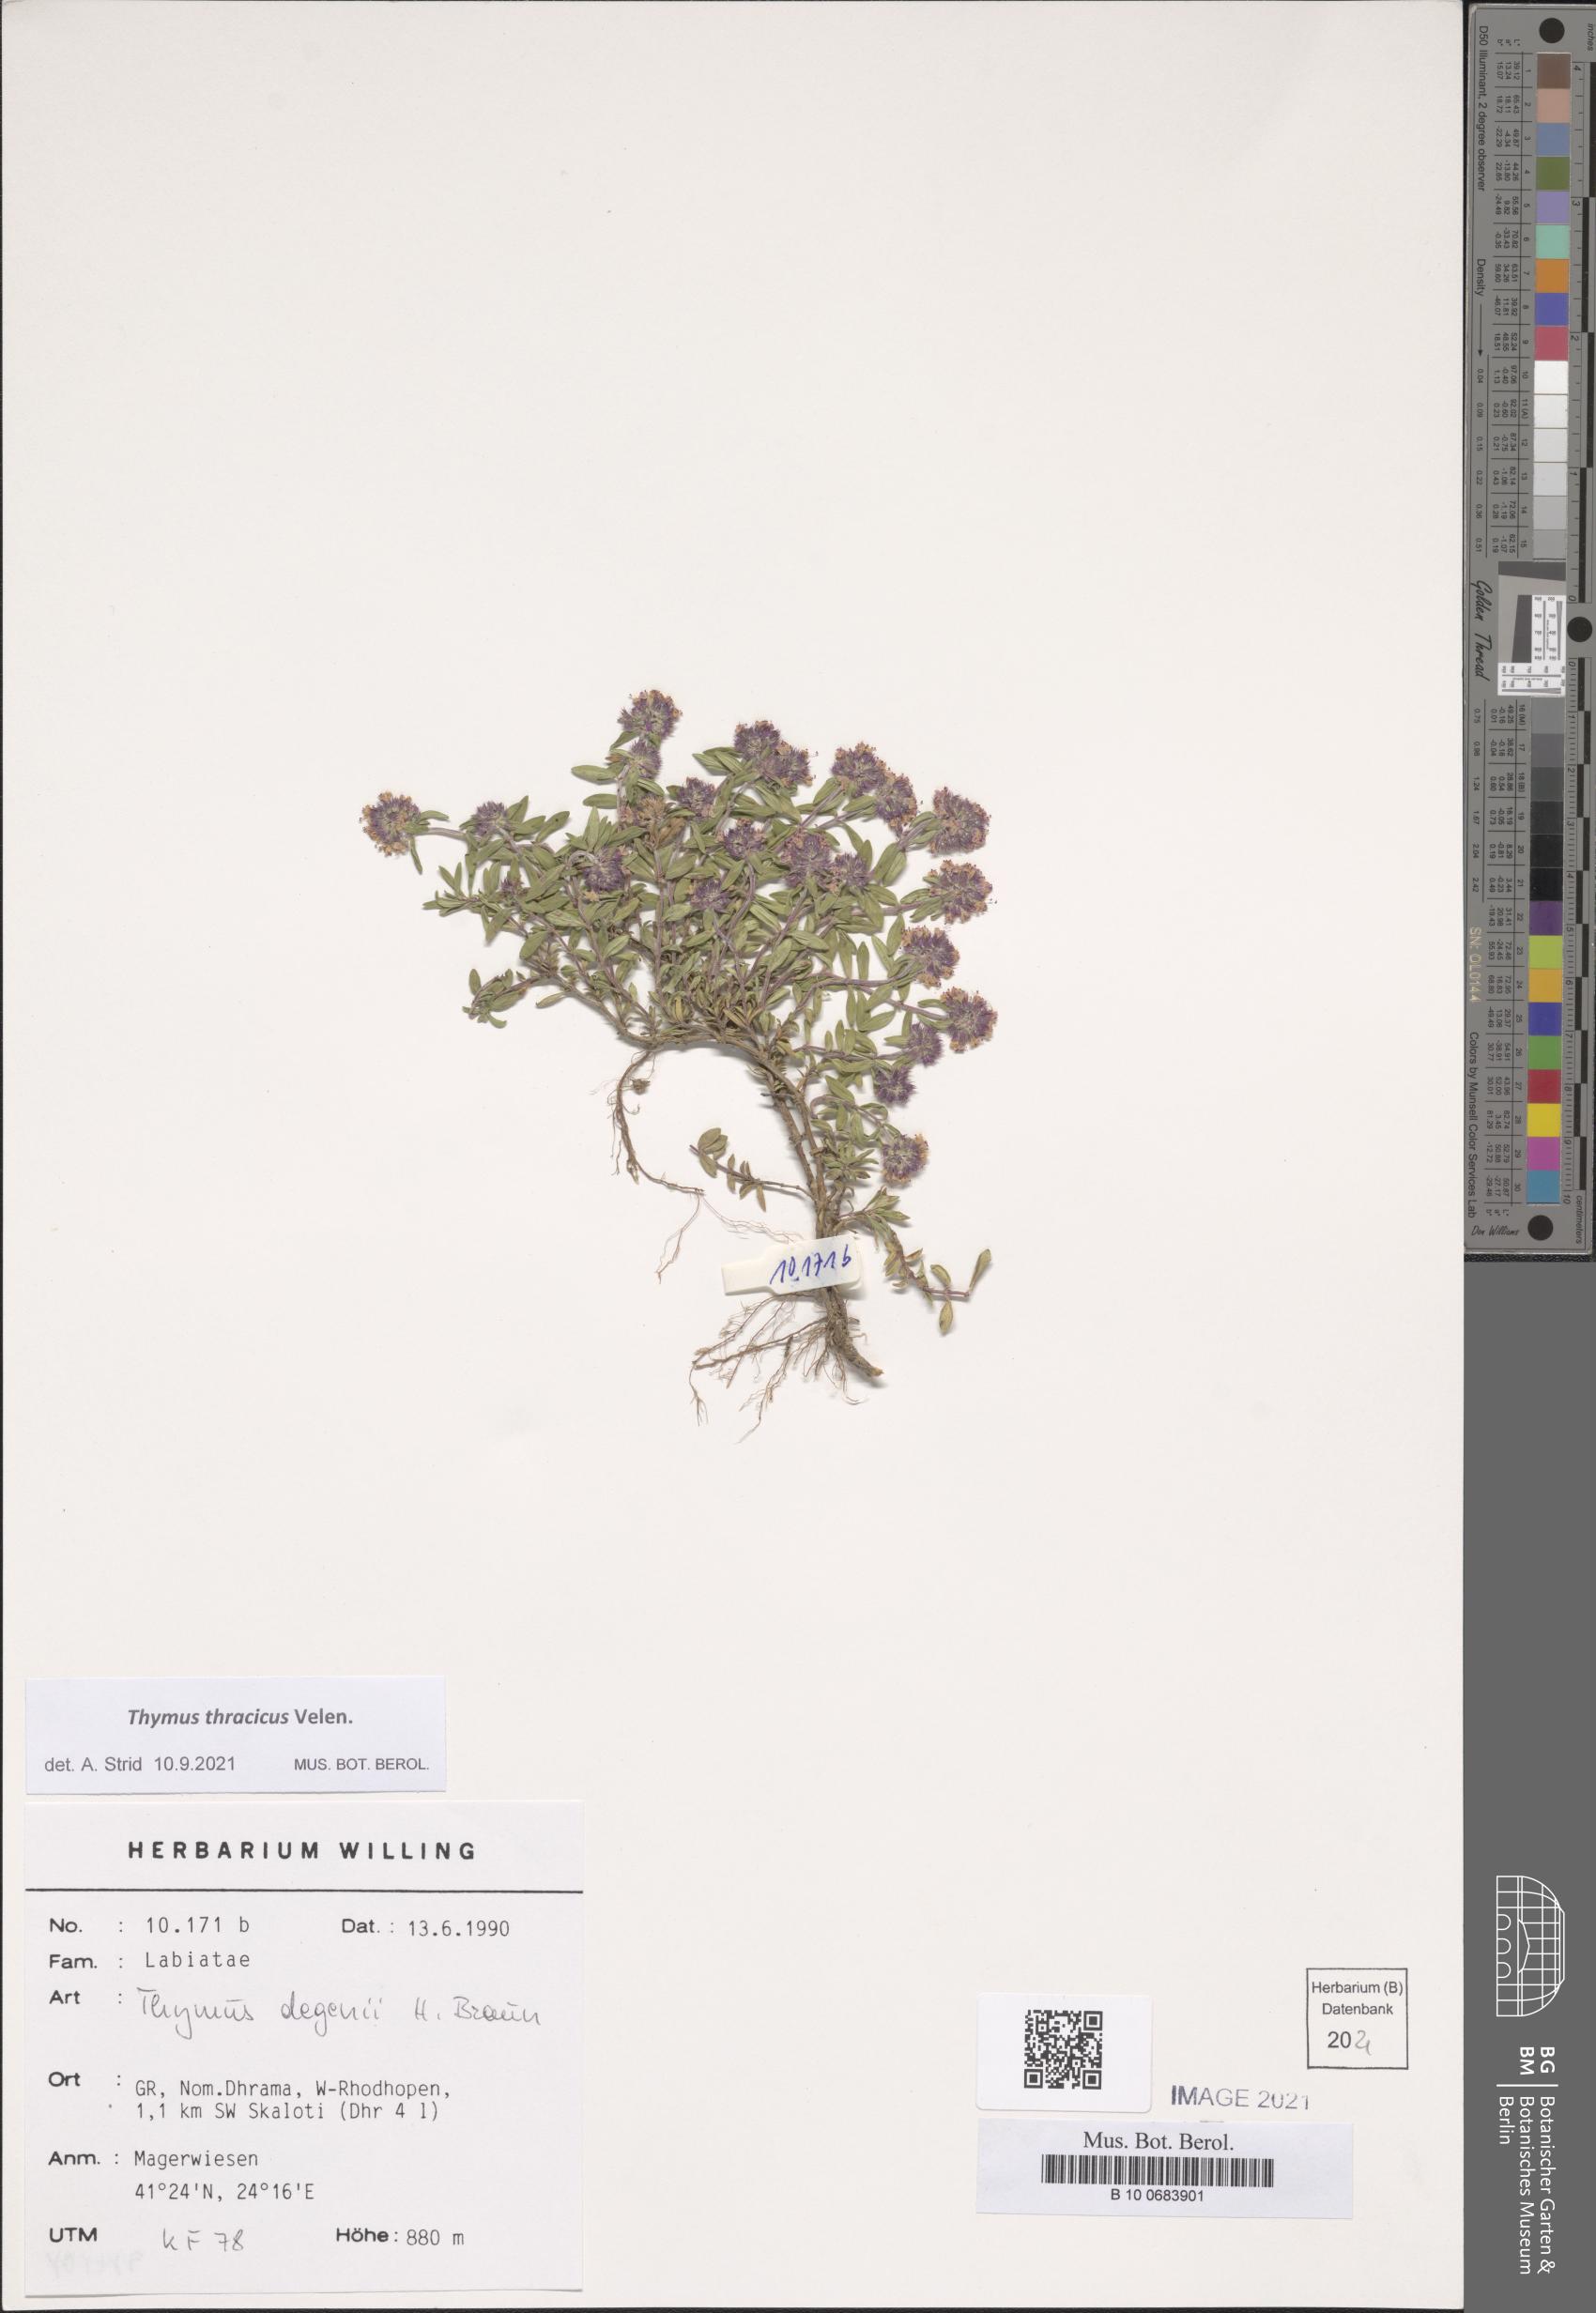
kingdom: Plantae
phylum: Tracheophyta
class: Magnoliopsida
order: Lamiales
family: Lamiaceae
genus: Thymus
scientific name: Thymus thracicus
